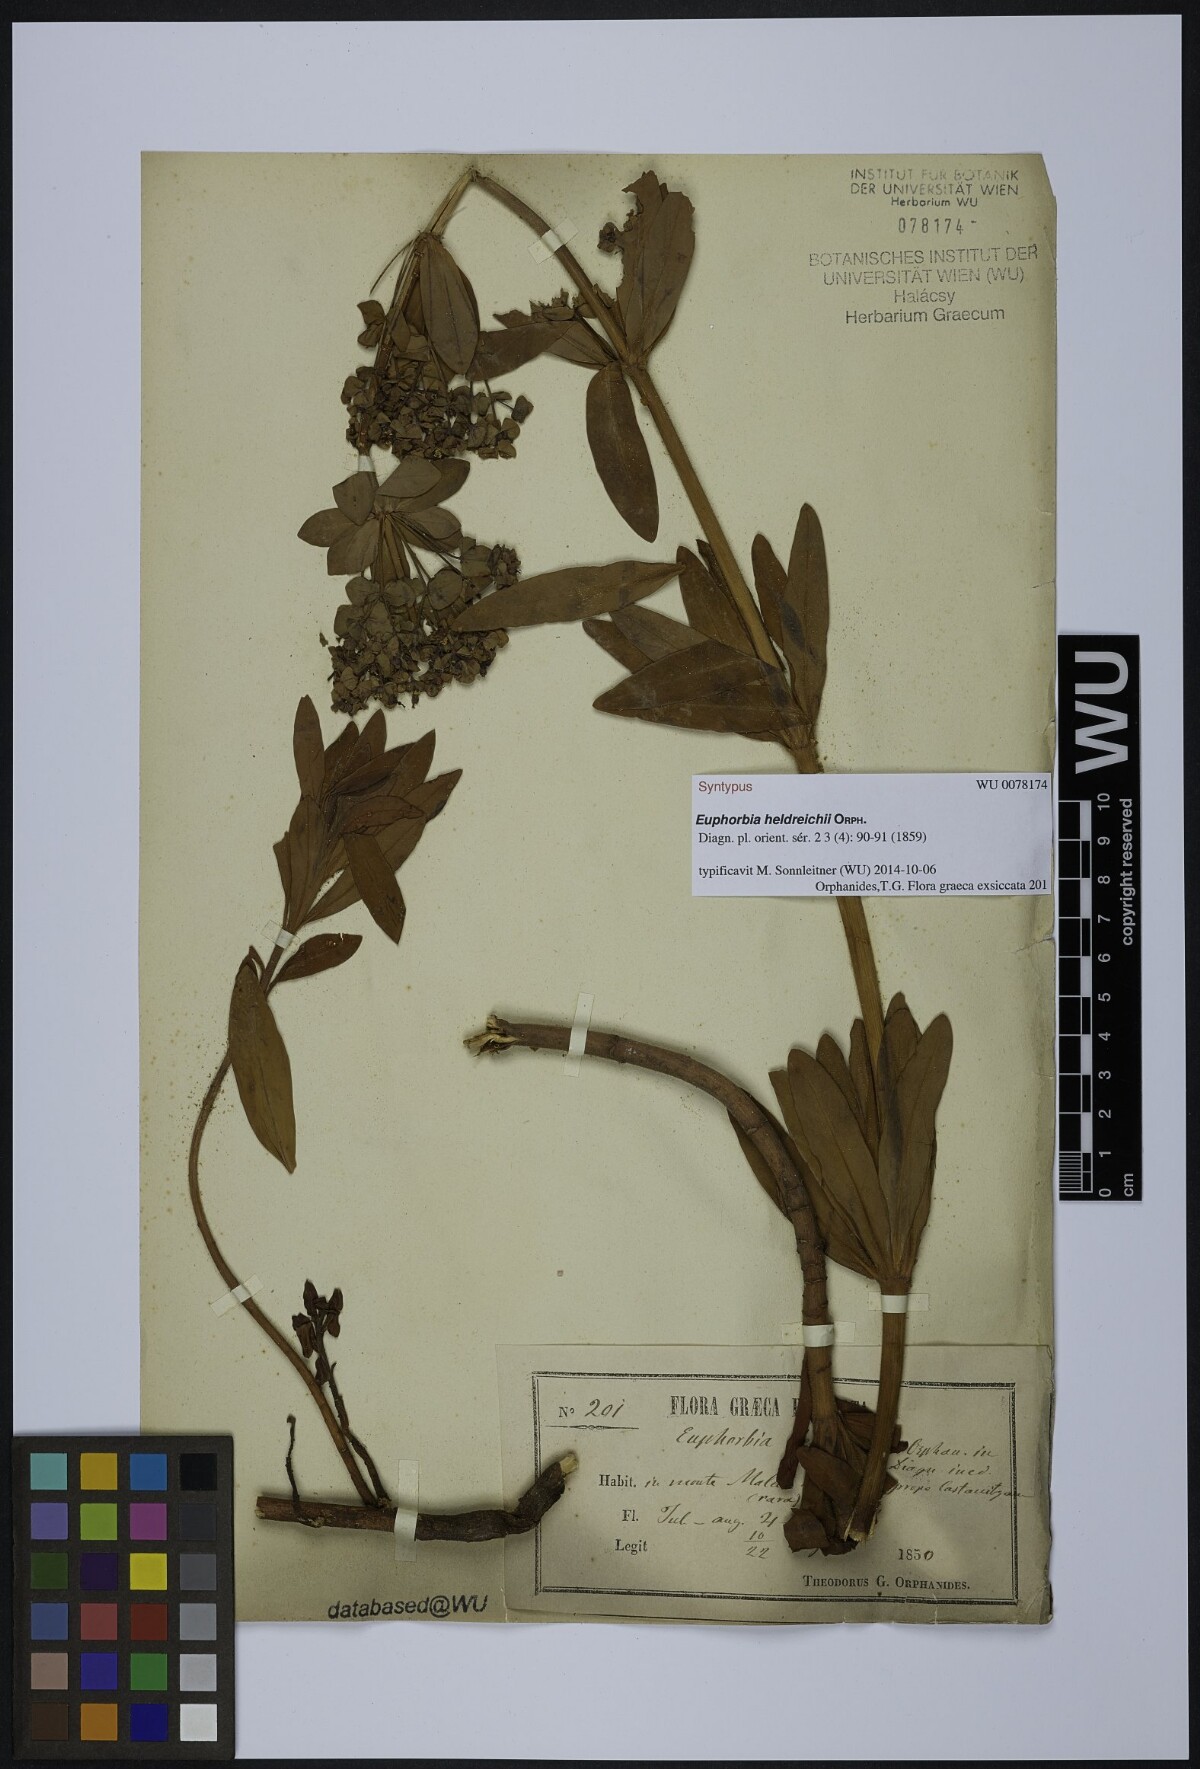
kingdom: Plantae
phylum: Tracheophyta
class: Magnoliopsida
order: Malpighiales
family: Euphorbiaceae
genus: Euphorbia
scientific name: Euphorbia heldreichii
